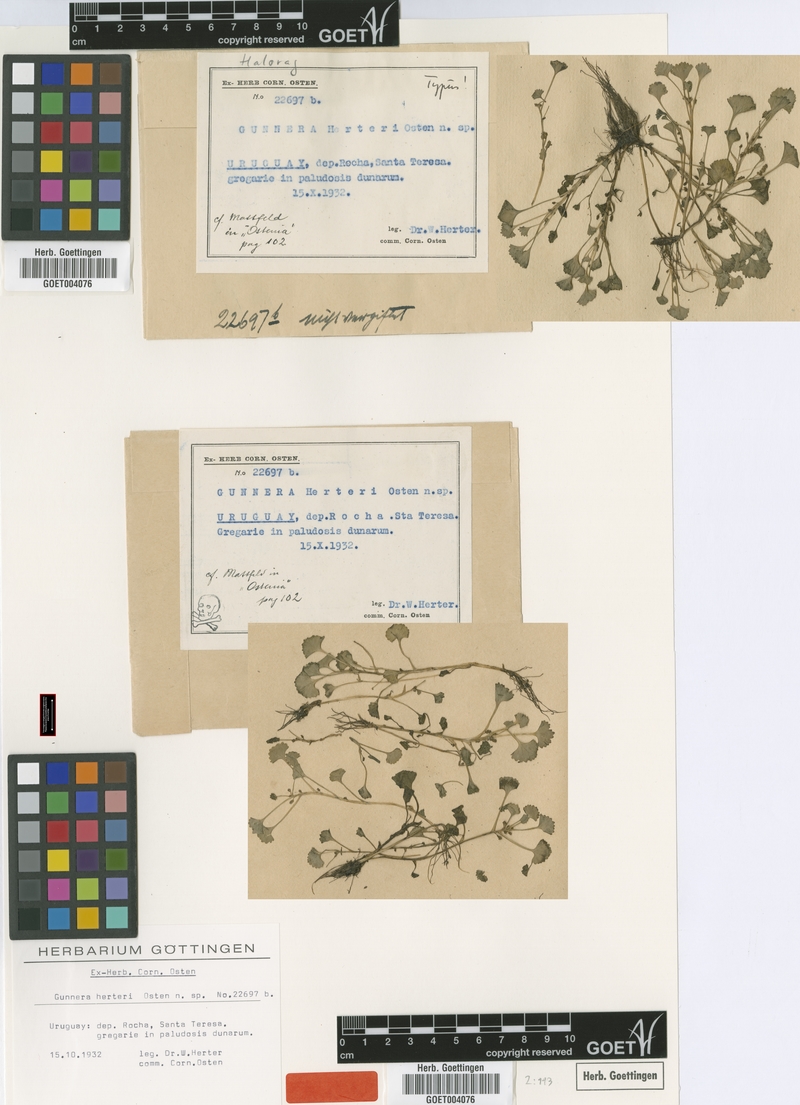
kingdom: Plantae
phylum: Tracheophyta
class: Magnoliopsida
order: Gunnerales
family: Gunneraceae
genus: Gunnera
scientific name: Gunnera herteri
